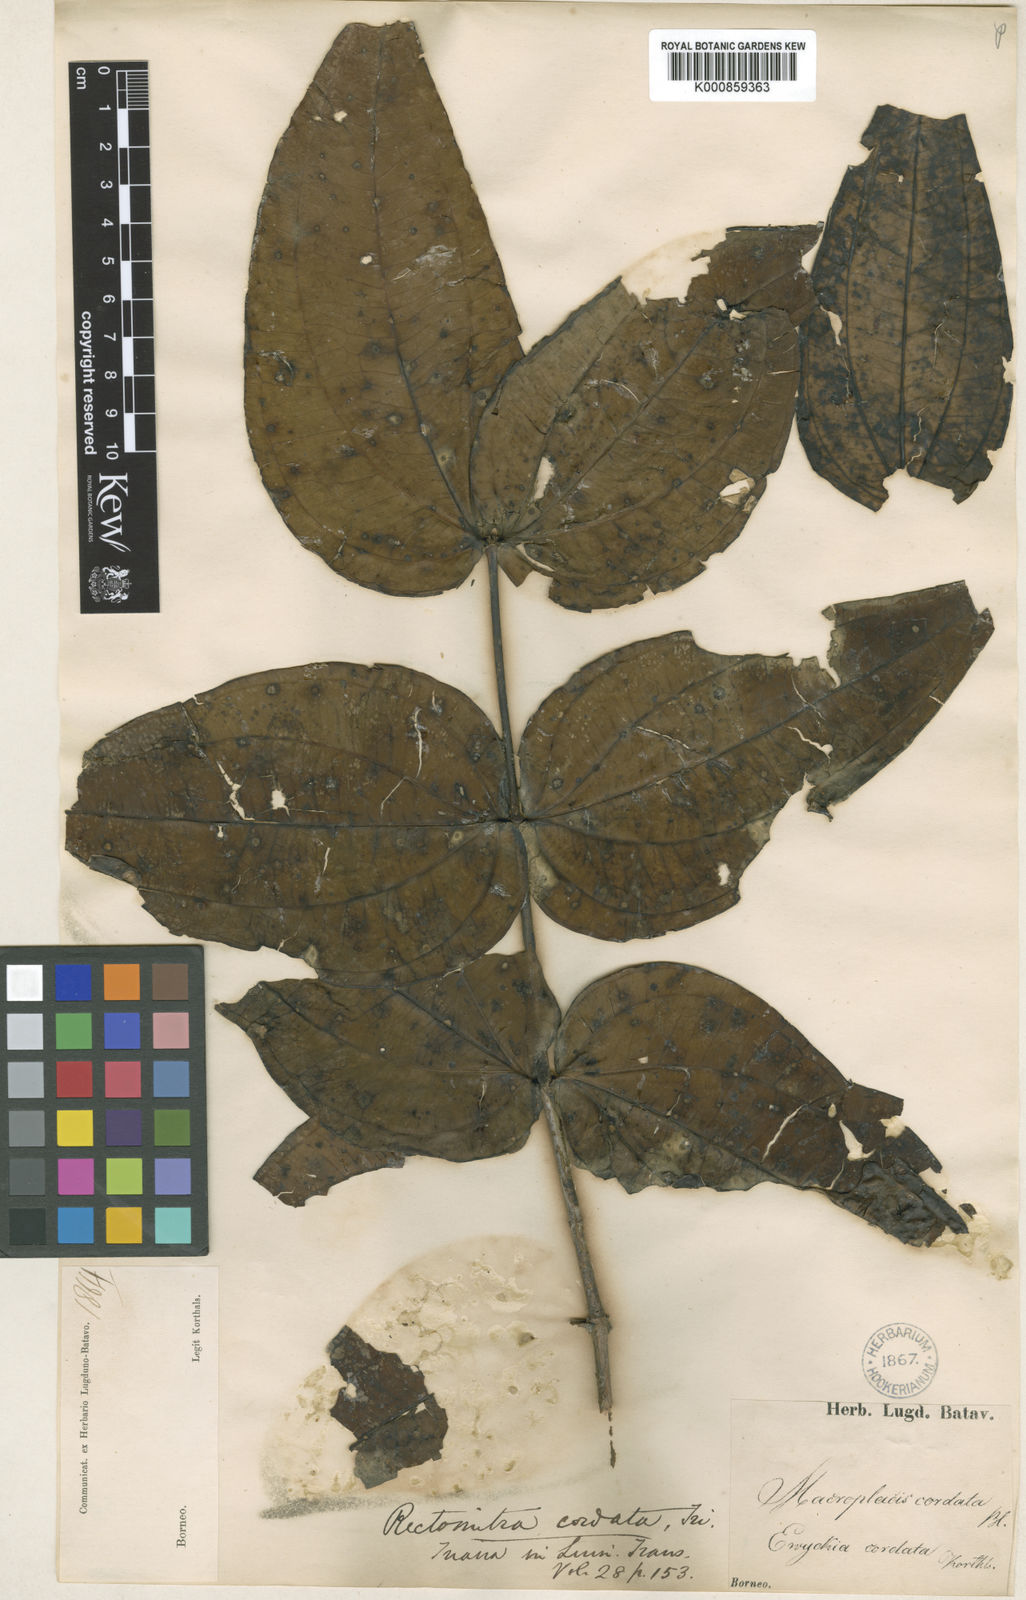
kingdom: Plantae
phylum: Tracheophyta
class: Magnoliopsida
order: Myrtales
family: Melastomataceae
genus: Pternandra
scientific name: Pternandra cogniauxii
